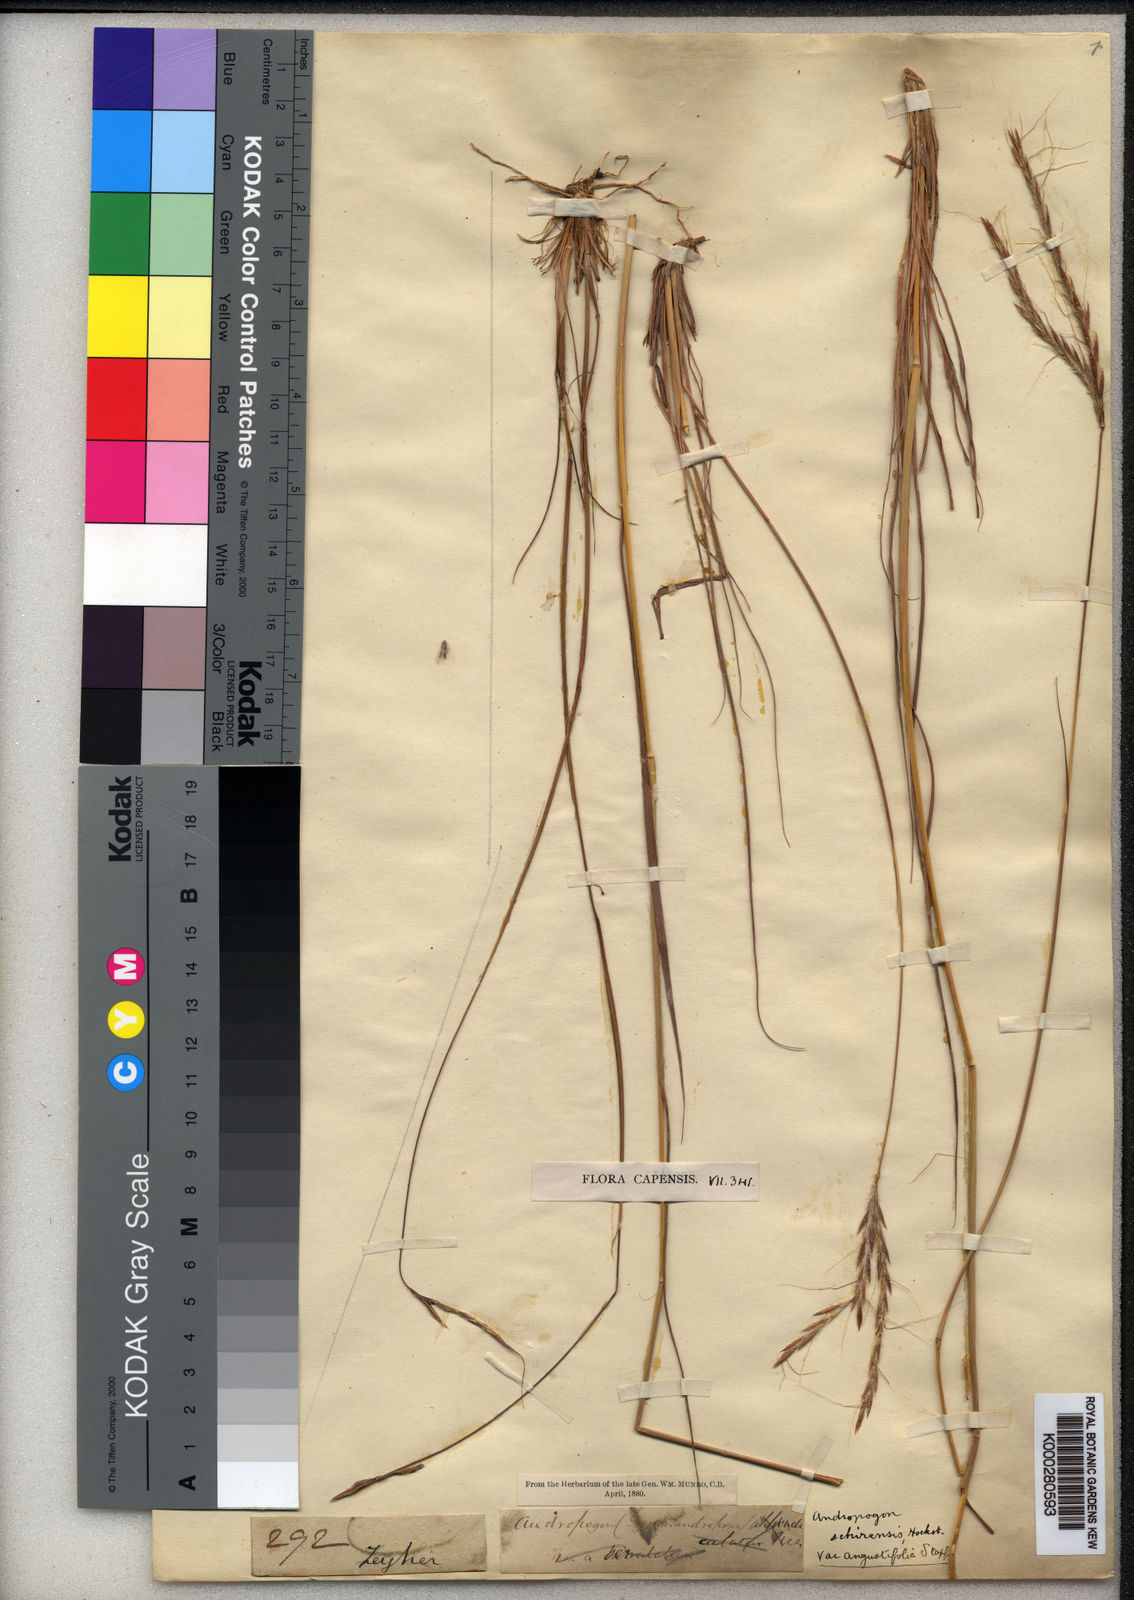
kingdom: Plantae
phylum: Tracheophyta
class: Liliopsida
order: Poales
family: Poaceae
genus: Andropogon
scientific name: Andropogon
